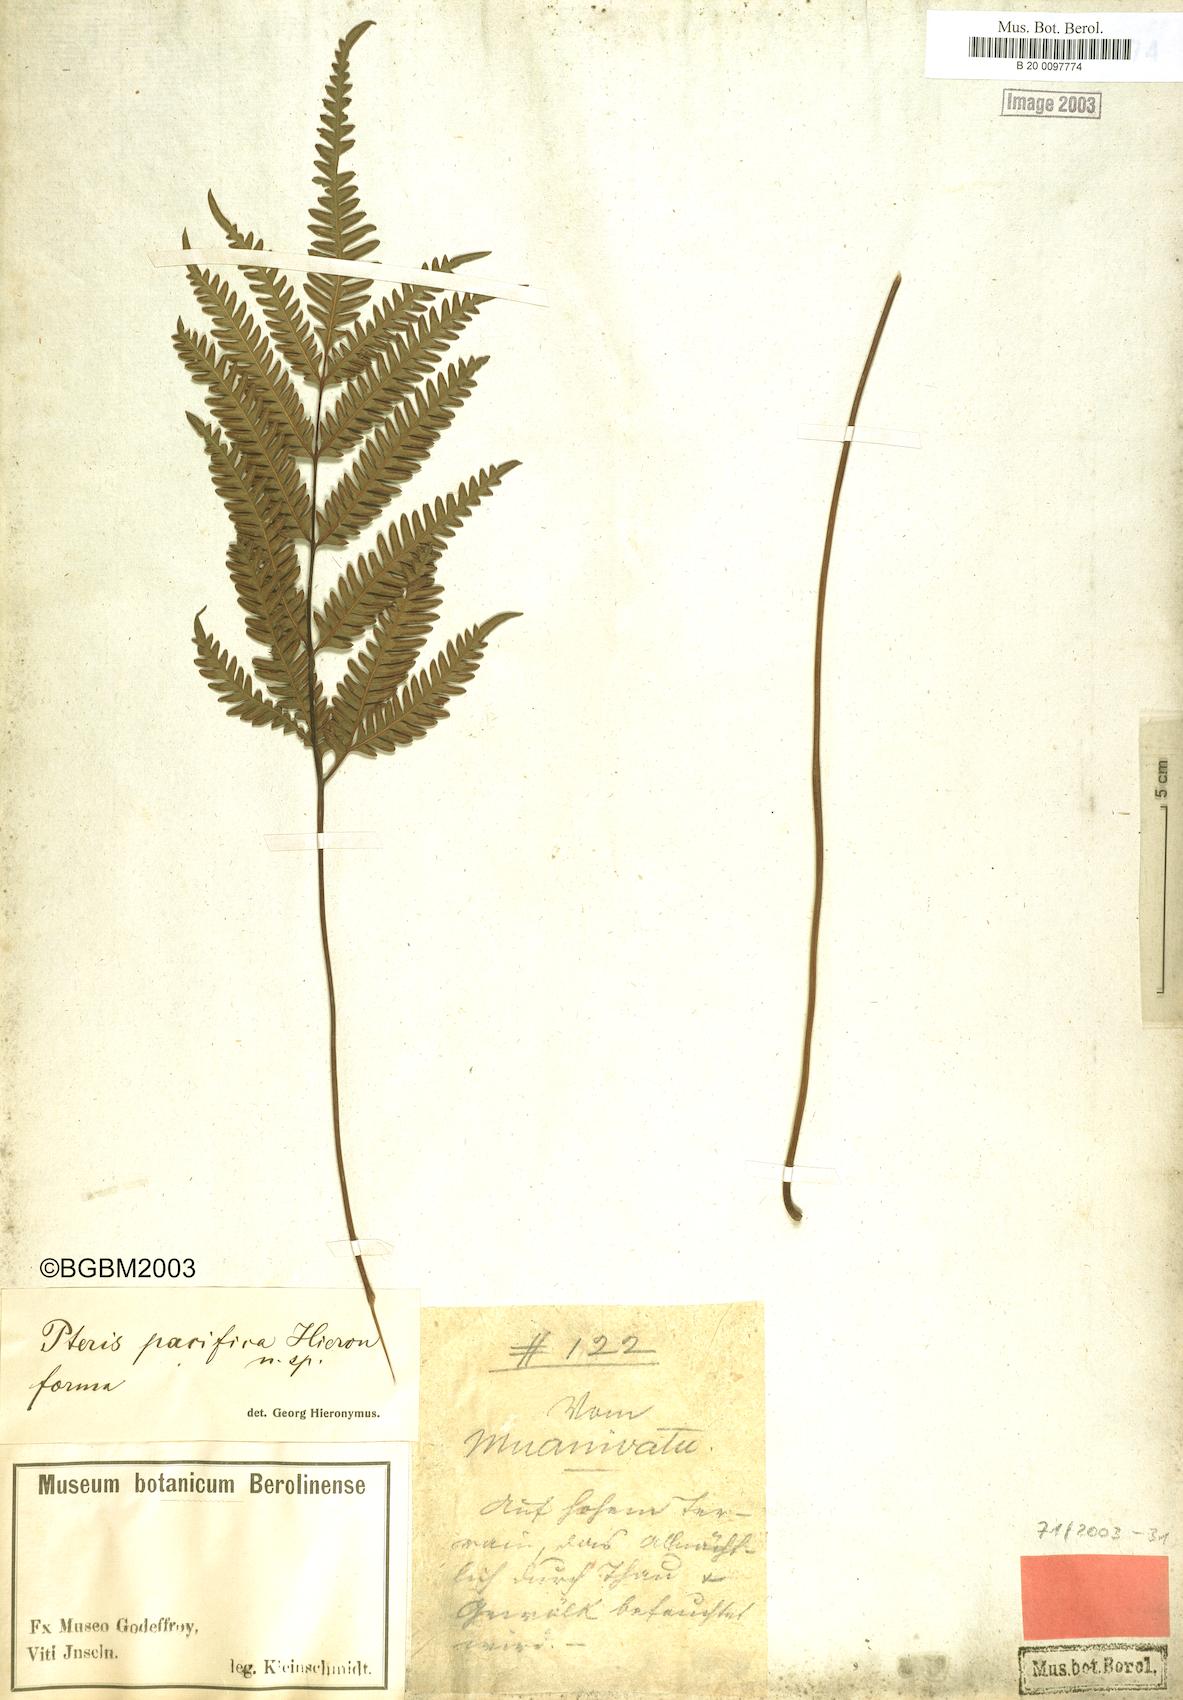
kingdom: Plantae
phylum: Tracheophyta
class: Polypodiopsida
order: Polypodiales
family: Pteridaceae
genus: Pteris
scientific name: Pteris biaurita
